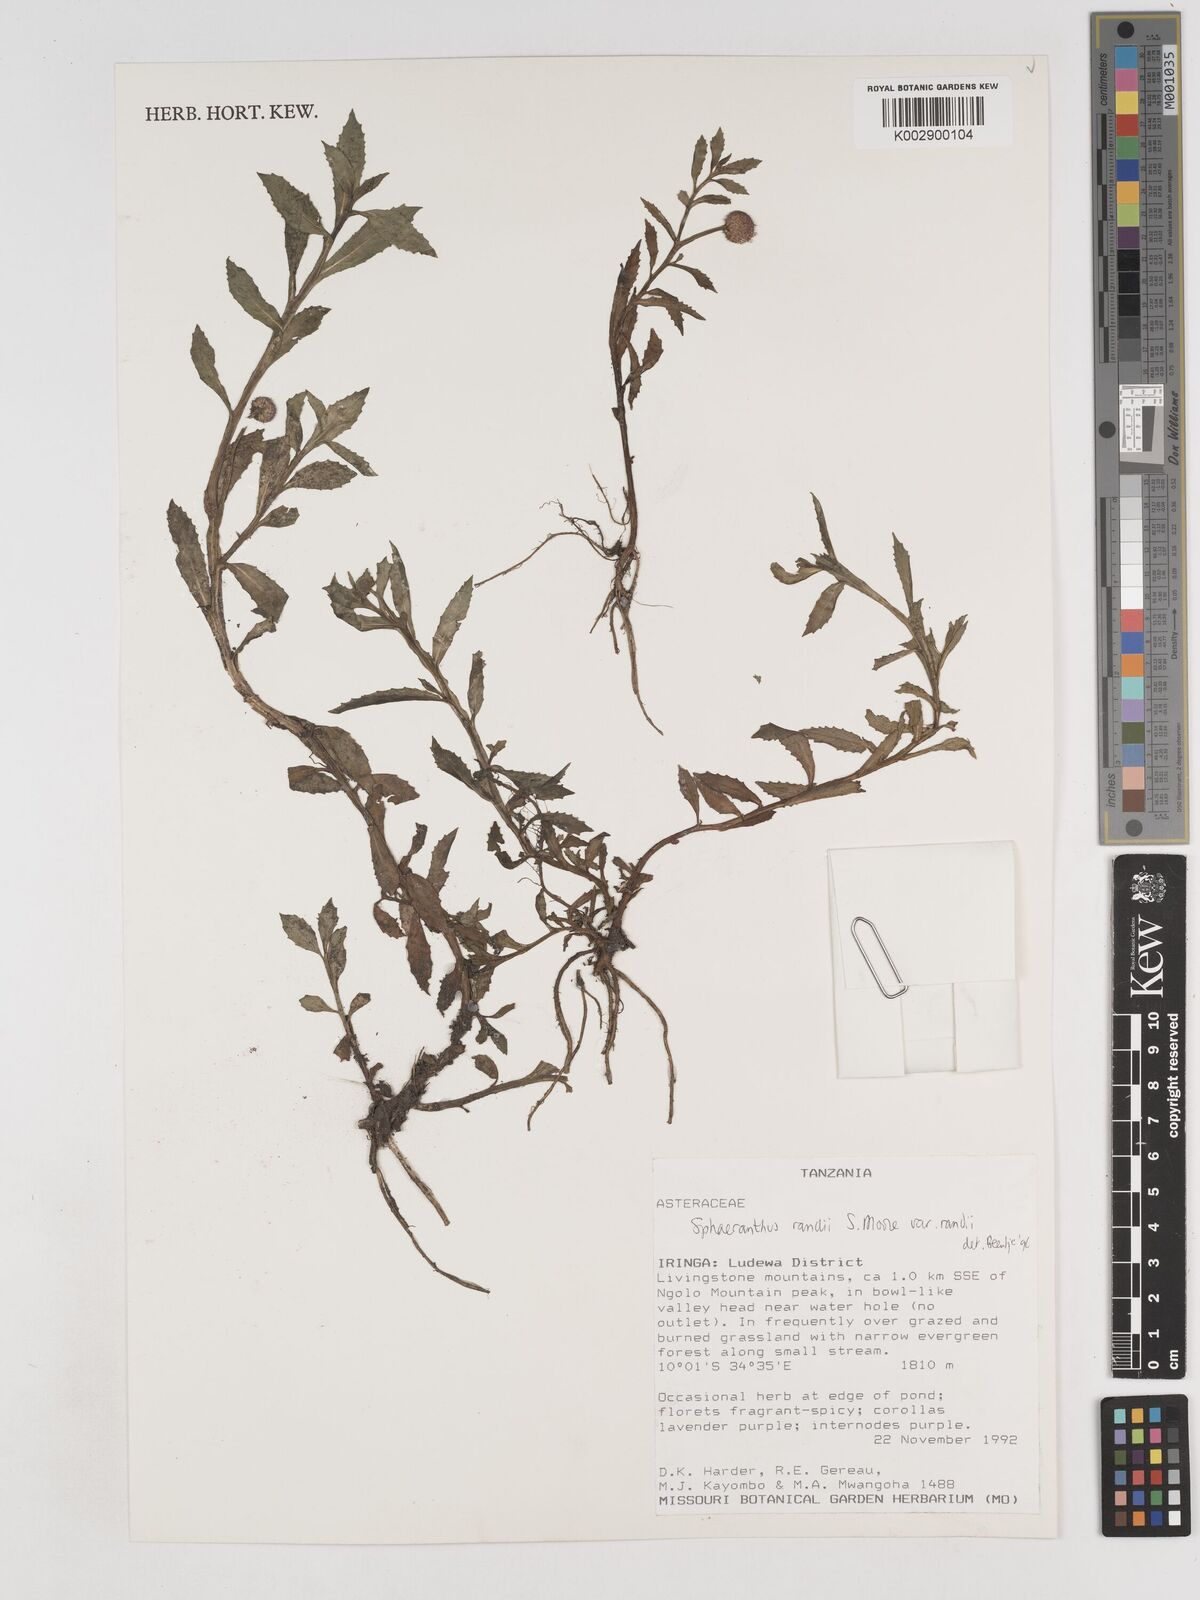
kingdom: Plantae
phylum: Tracheophyta
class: Magnoliopsida
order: Asterales
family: Asteraceae
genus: Sphaeranthus
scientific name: Sphaeranthus randii
